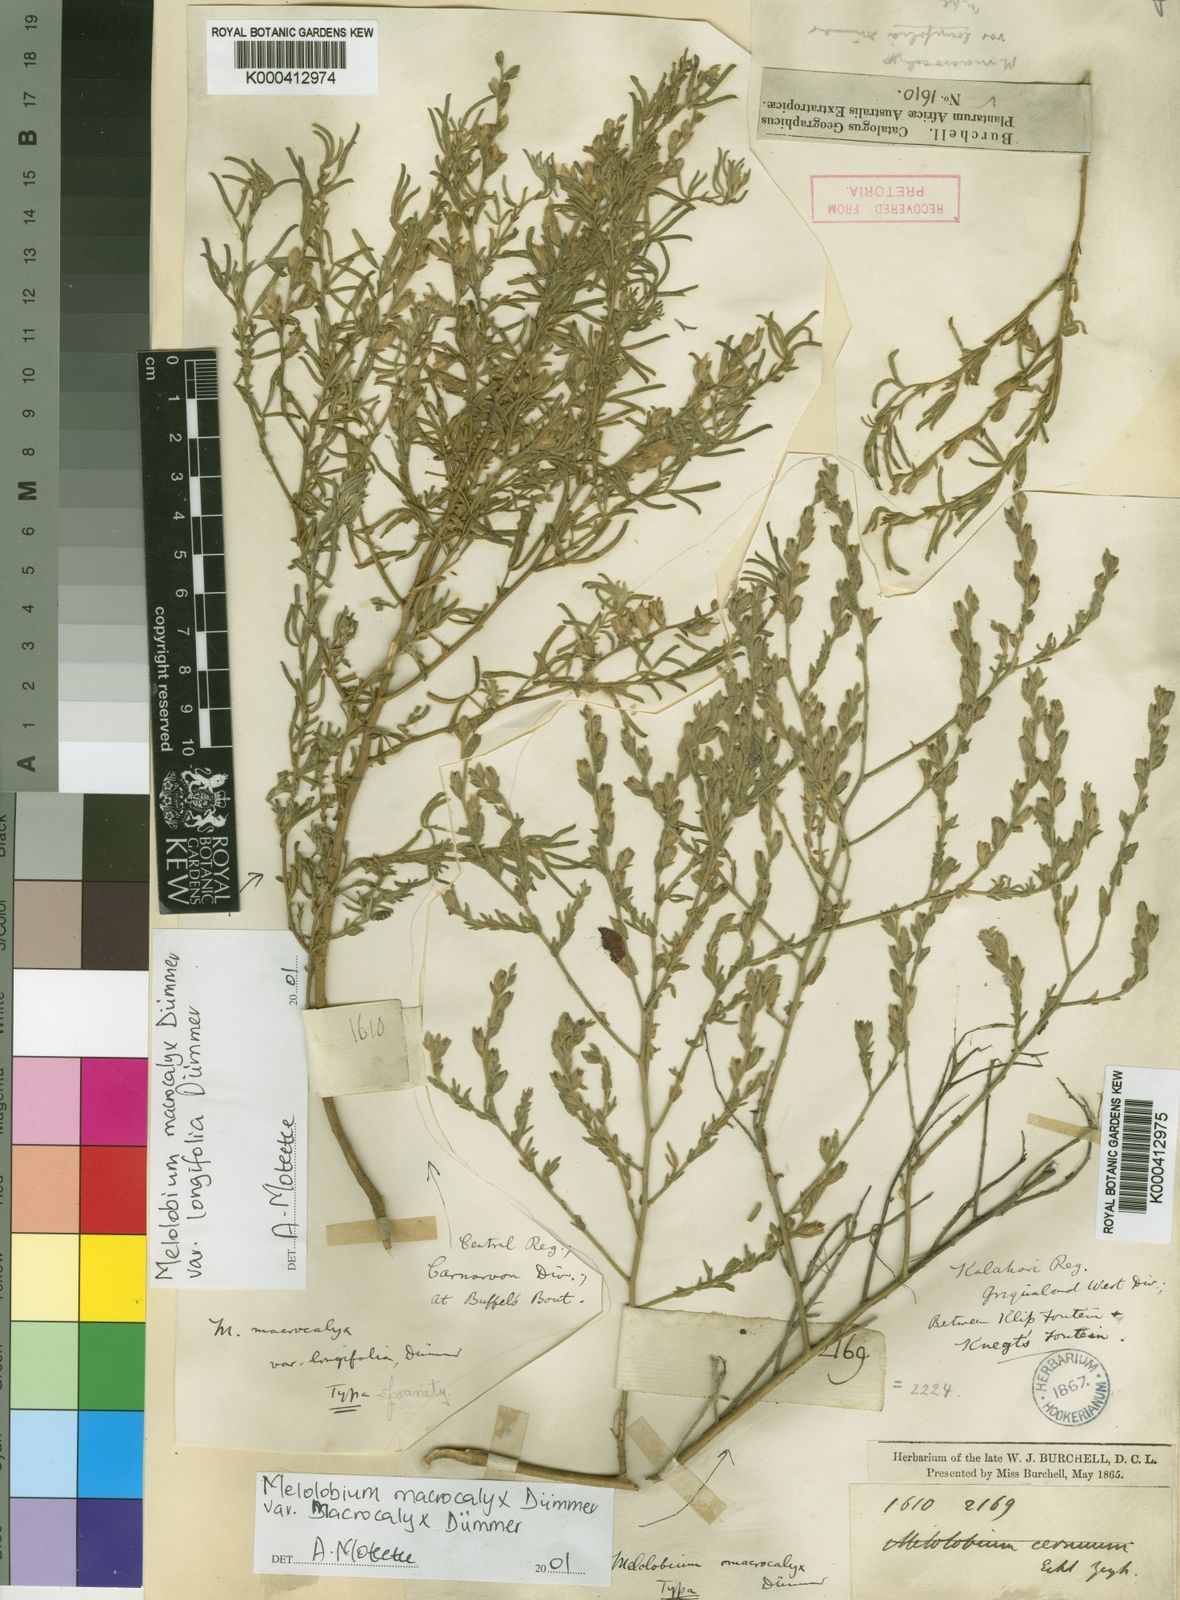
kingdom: Plantae
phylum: Tracheophyta
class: Magnoliopsida
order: Fabales
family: Fabaceae
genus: Melolobium
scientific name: Melolobium macrocalyx
